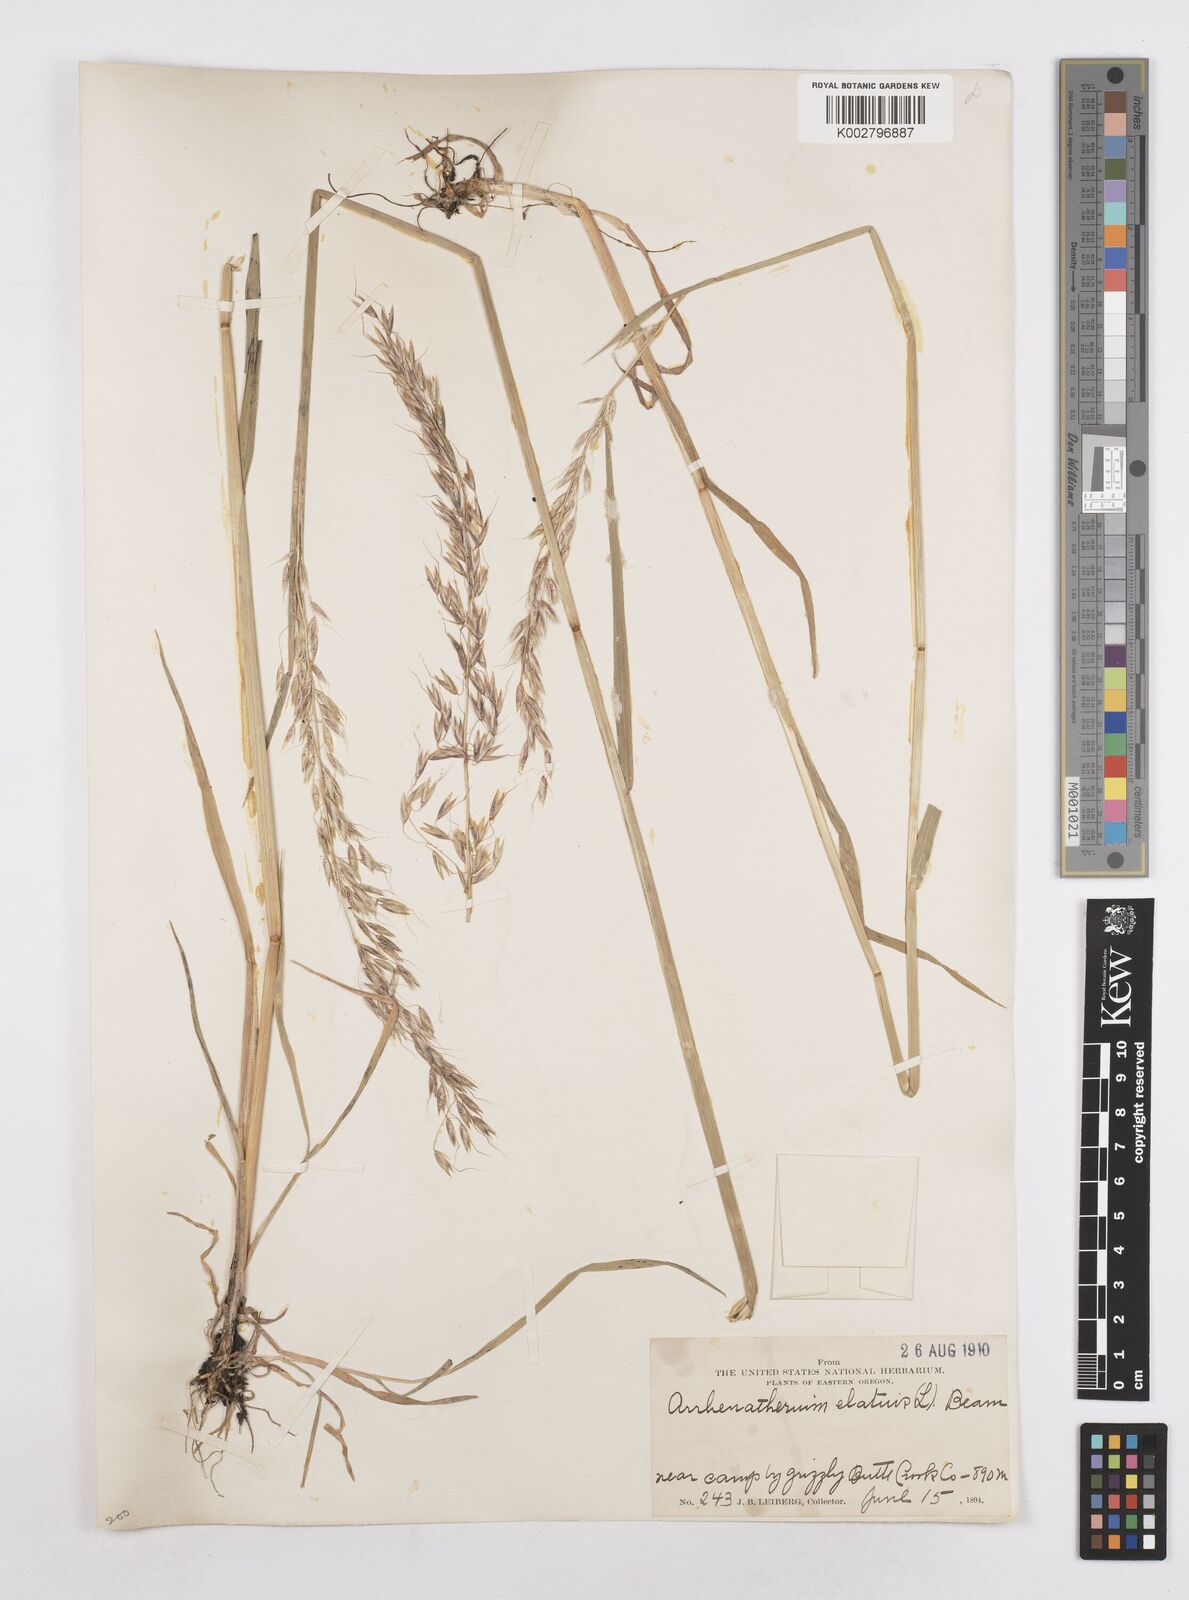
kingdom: Plantae
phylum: Tracheophyta
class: Liliopsida
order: Poales
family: Poaceae
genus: Arrhenatherum
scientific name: Arrhenatherum elatius
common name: Tall oatgrass
